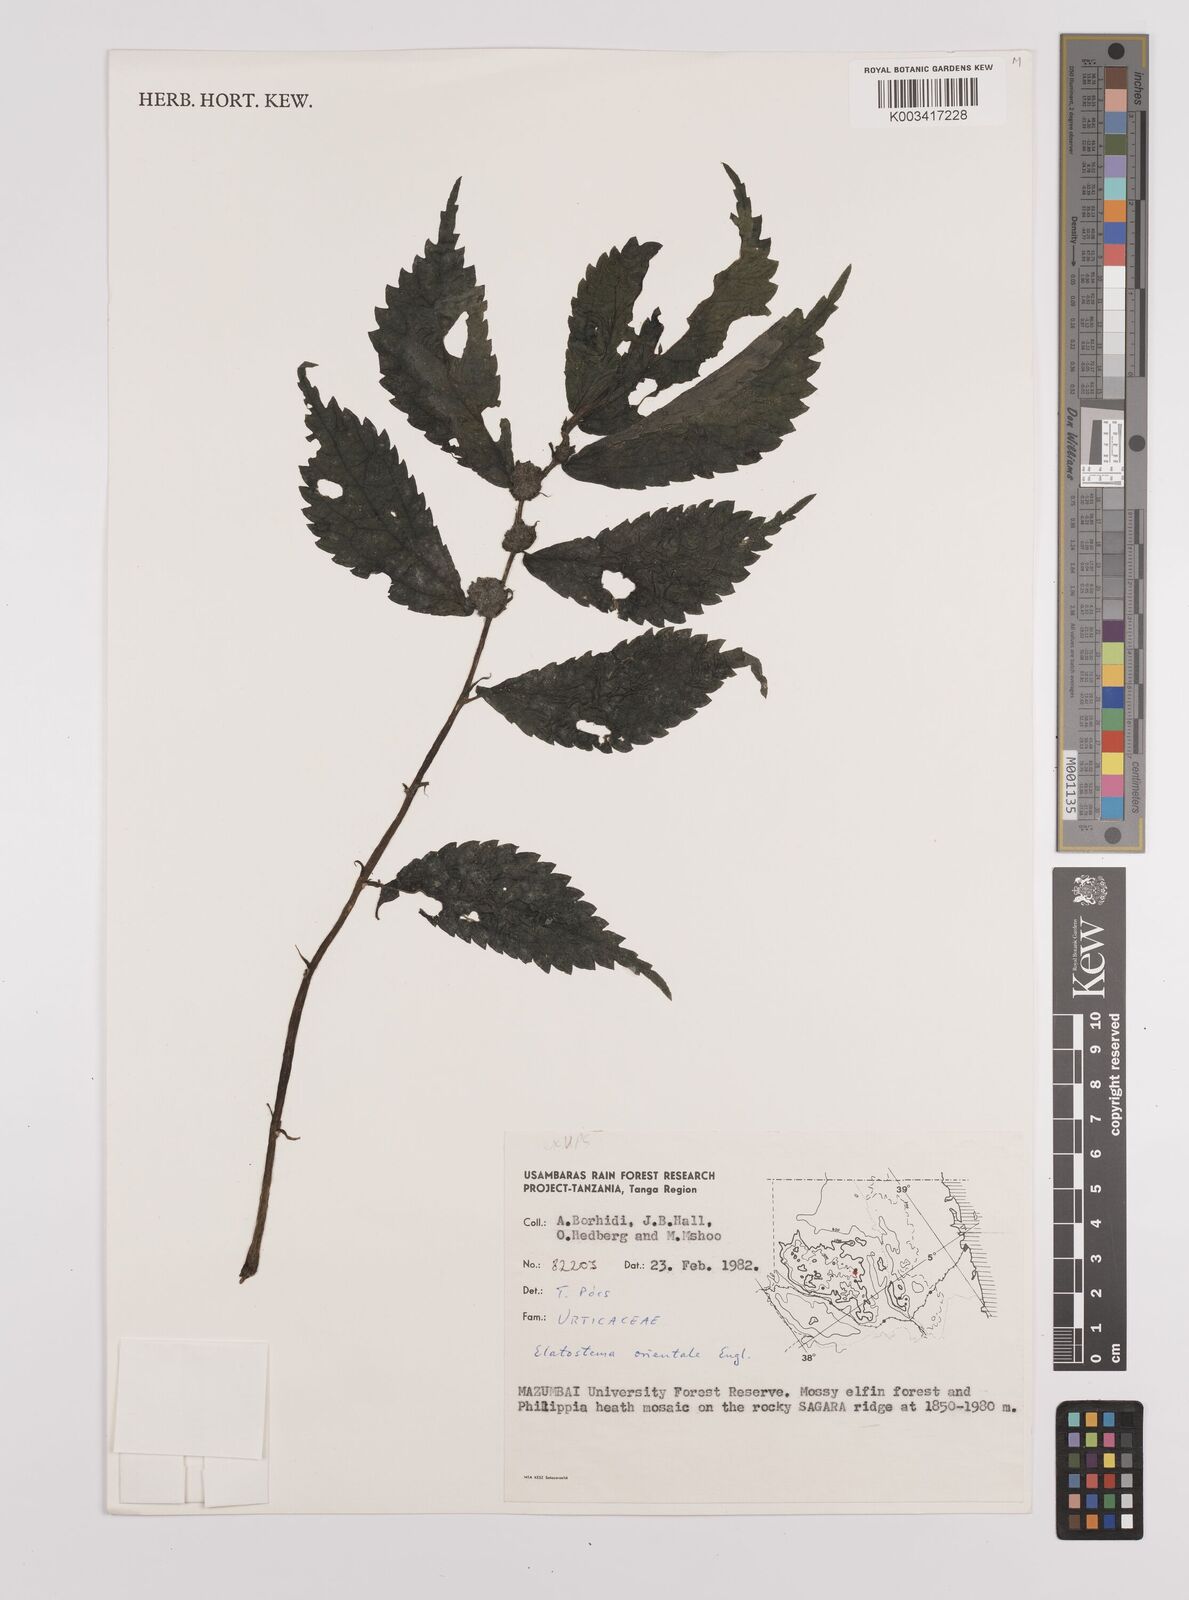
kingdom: Plantae
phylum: Tracheophyta
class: Magnoliopsida
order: Rosales
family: Urticaceae
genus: Elatostema
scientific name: Elatostema monticola
